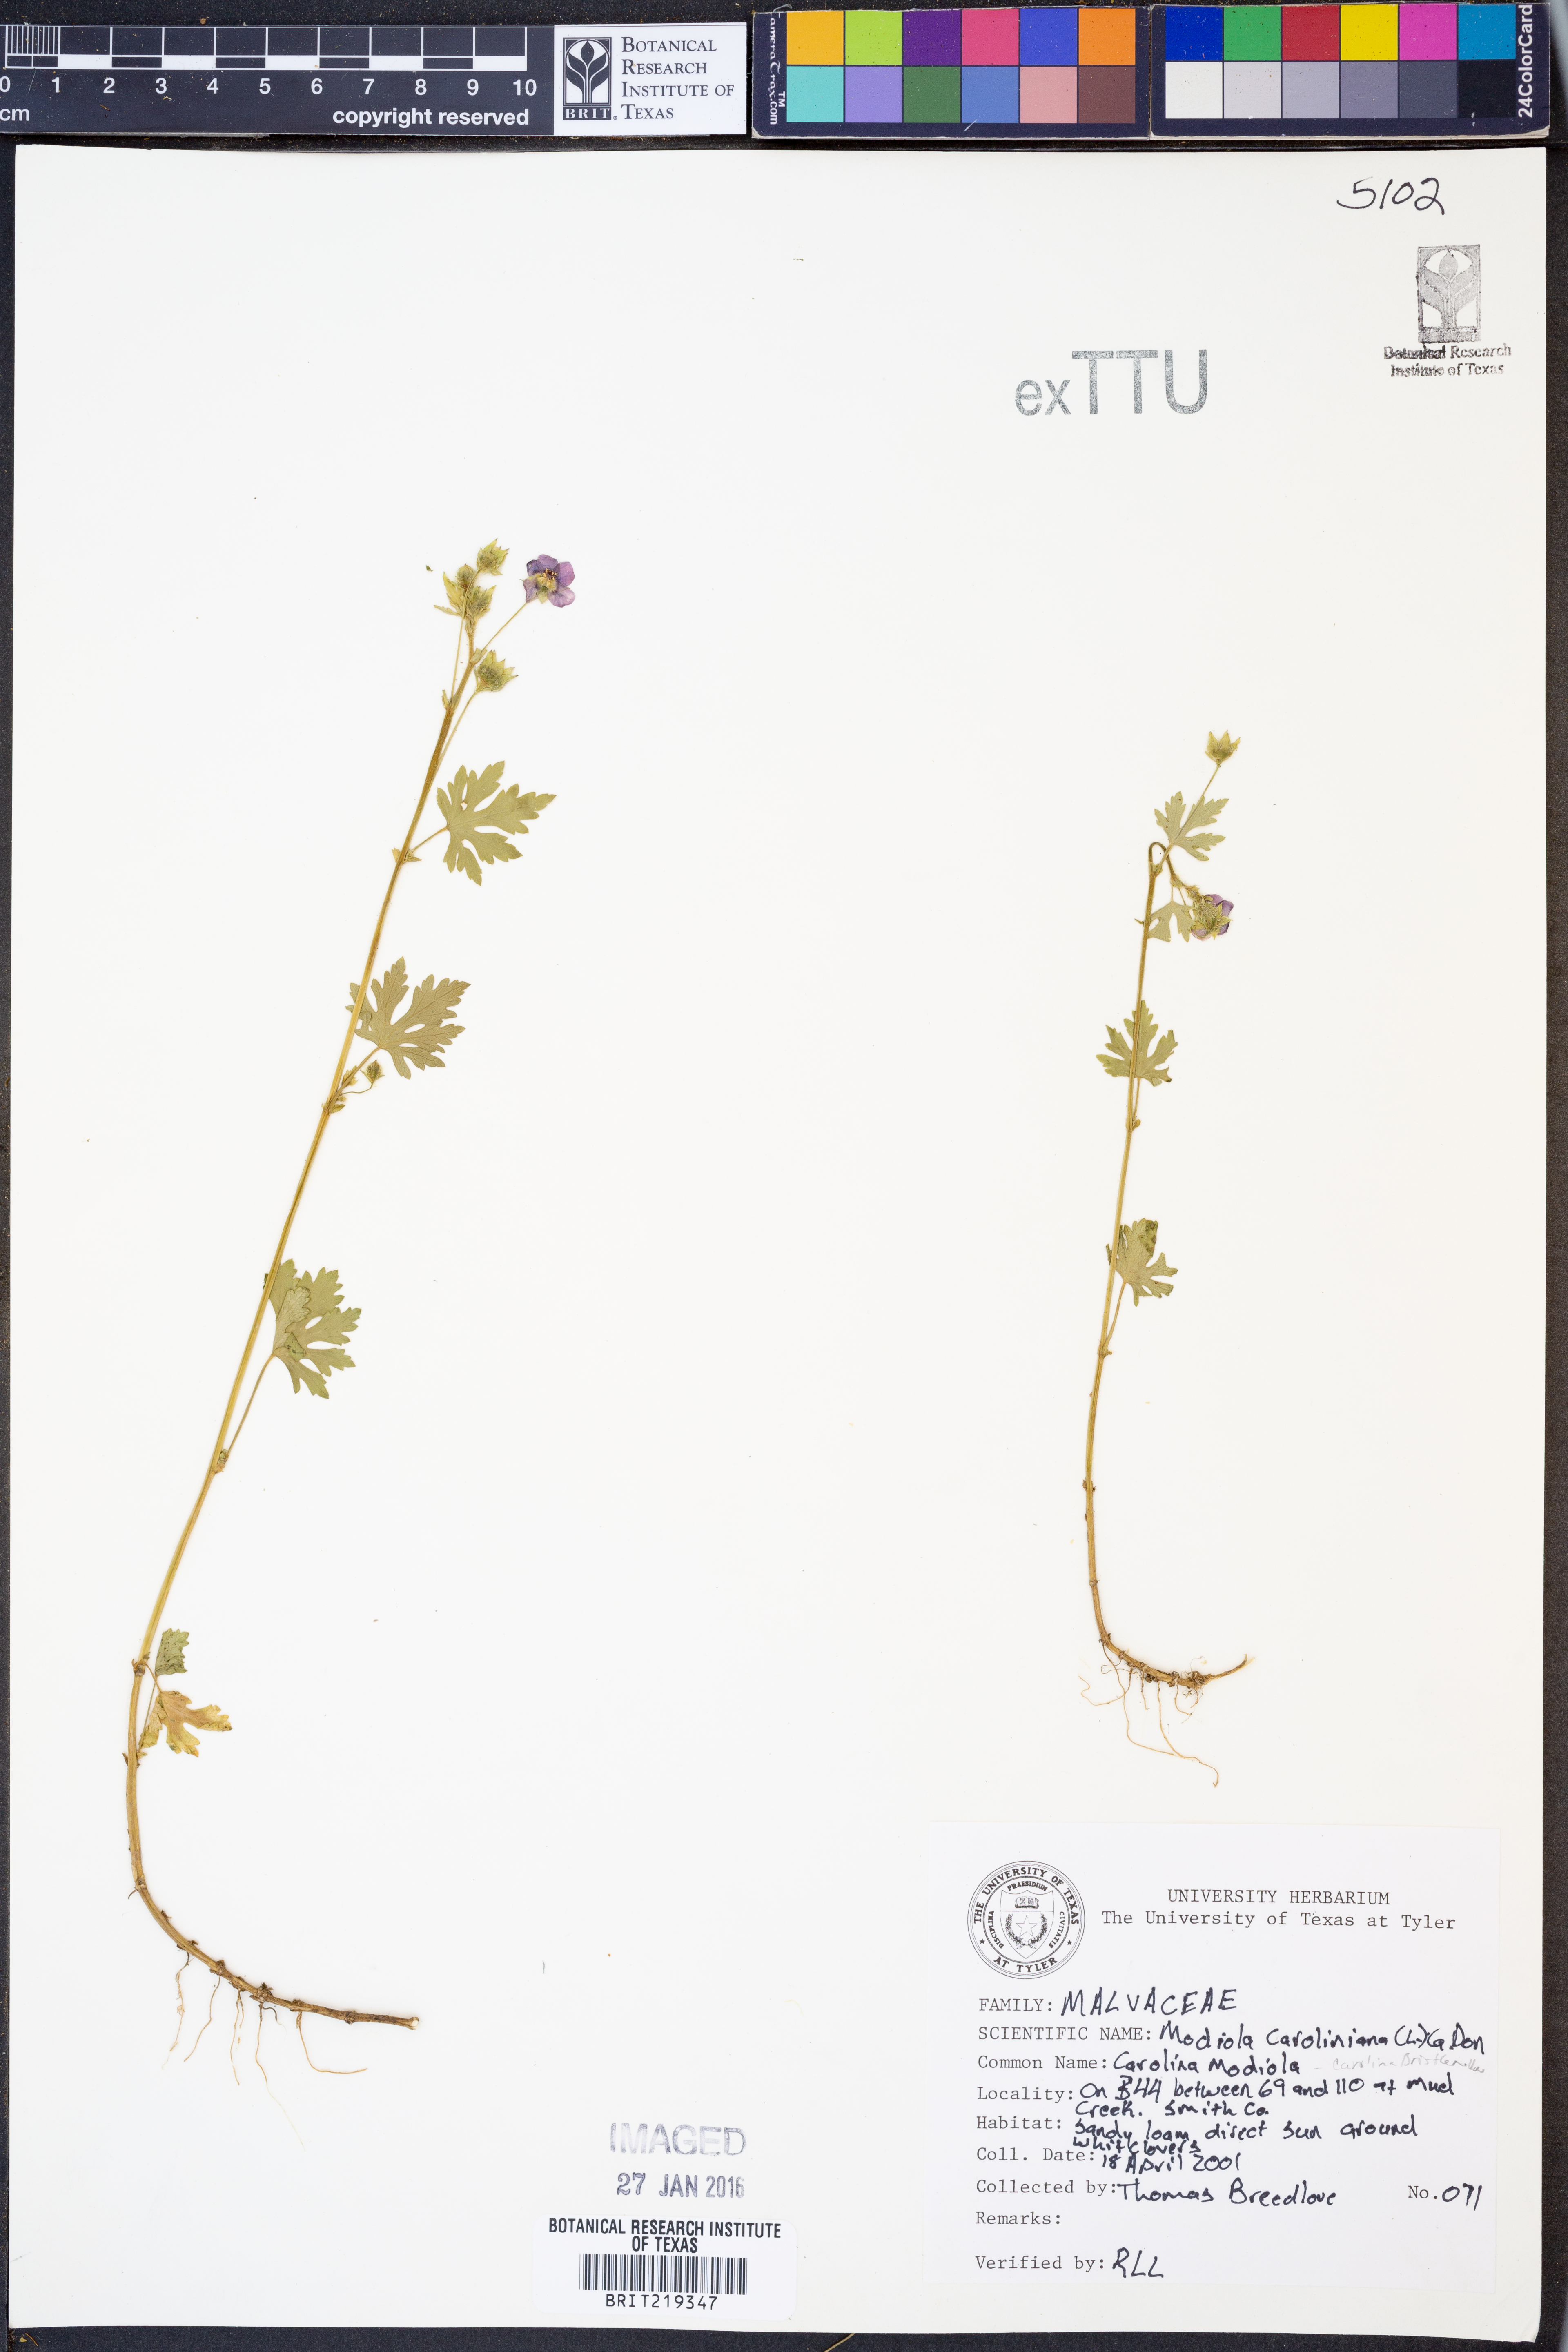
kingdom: Plantae
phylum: Tracheophyta
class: Magnoliopsida
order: Malvales
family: Malvaceae
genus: Modiola
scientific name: Modiola caroliniana
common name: Carolina bristlemallow
